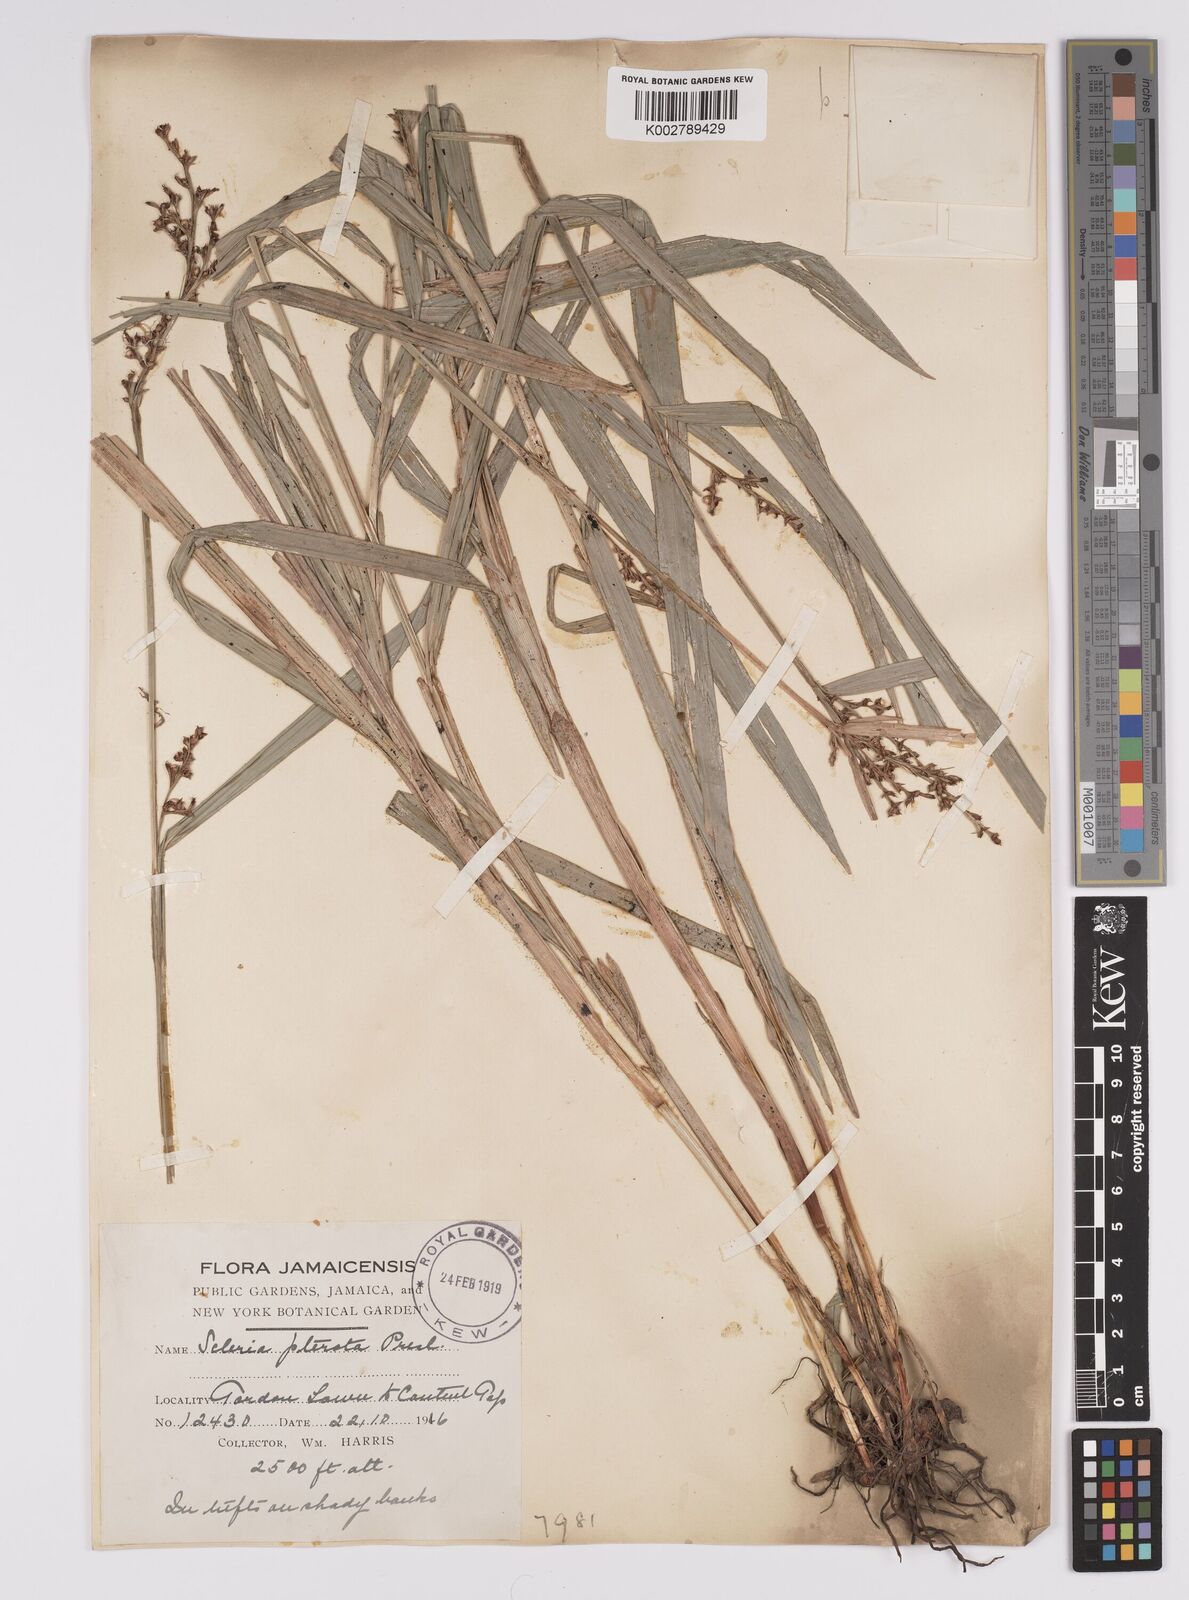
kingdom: Plantae
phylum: Tracheophyta
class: Liliopsida
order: Poales
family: Cyperaceae
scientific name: Cyperaceae
